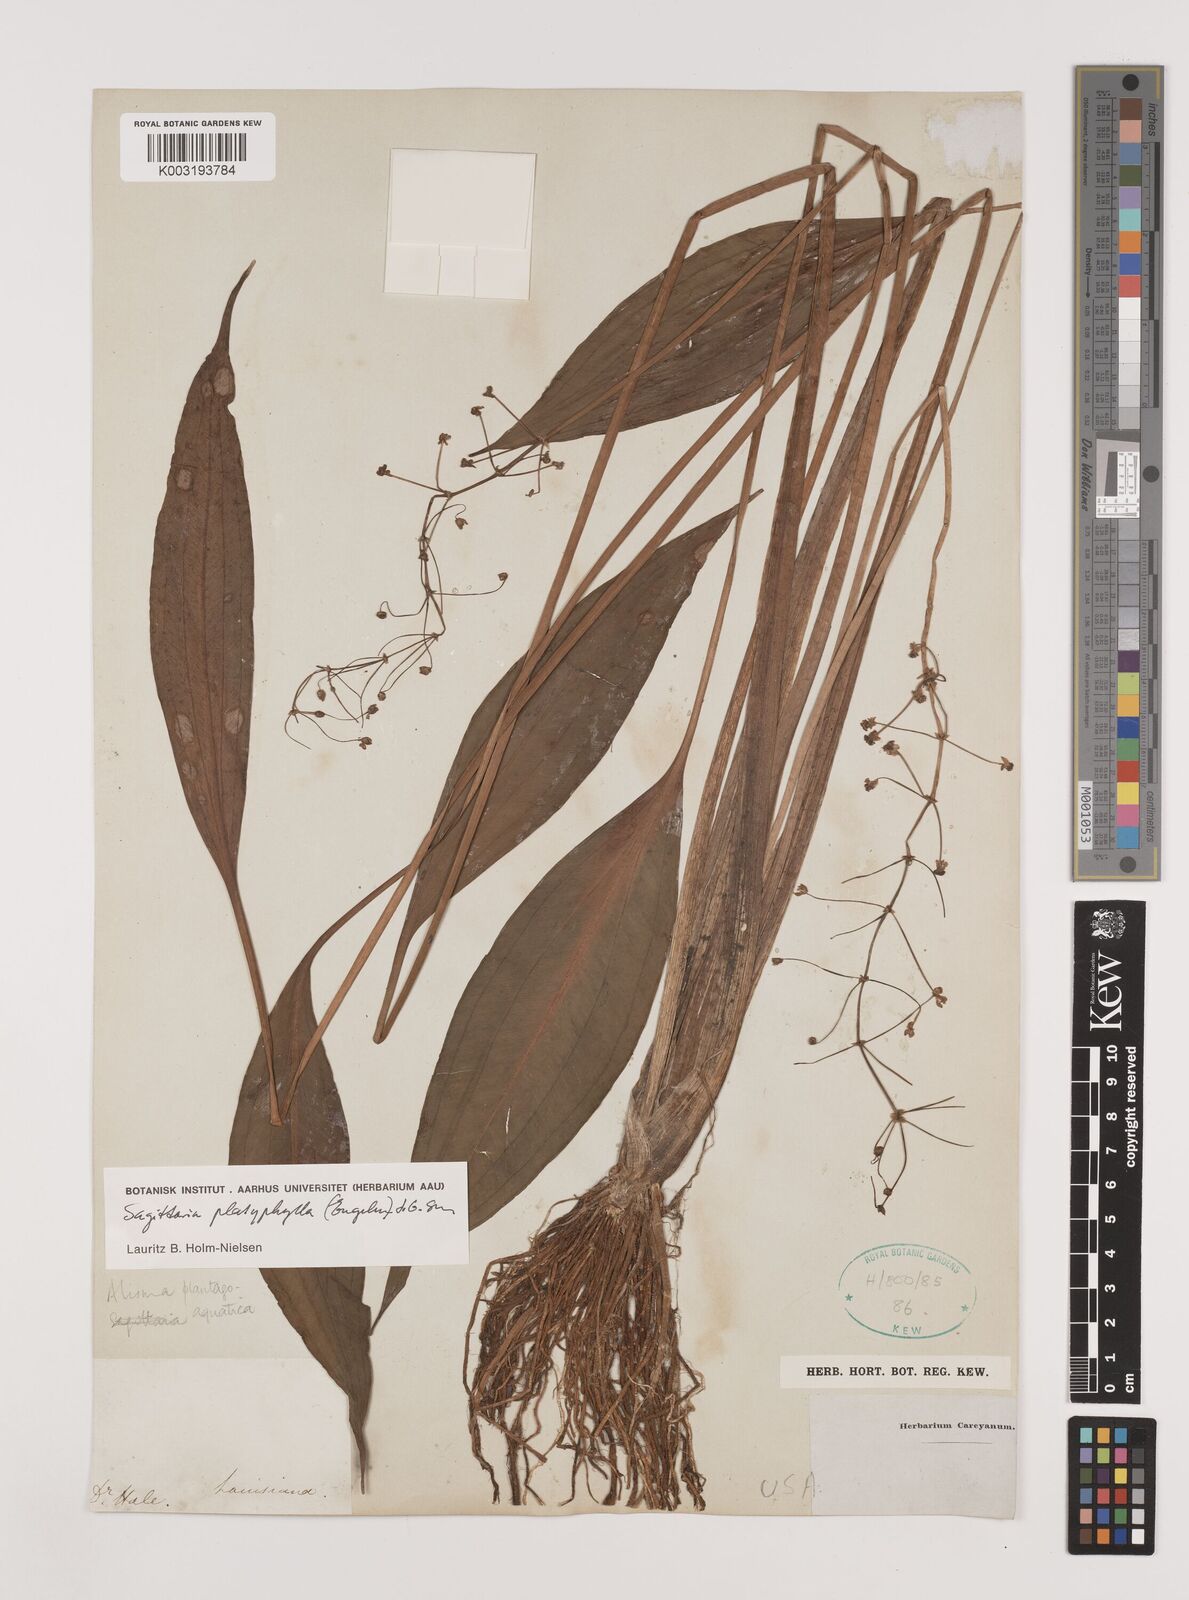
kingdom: Plantae
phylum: Tracheophyta
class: Liliopsida
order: Alismatales
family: Alismataceae
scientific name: Alismataceae
